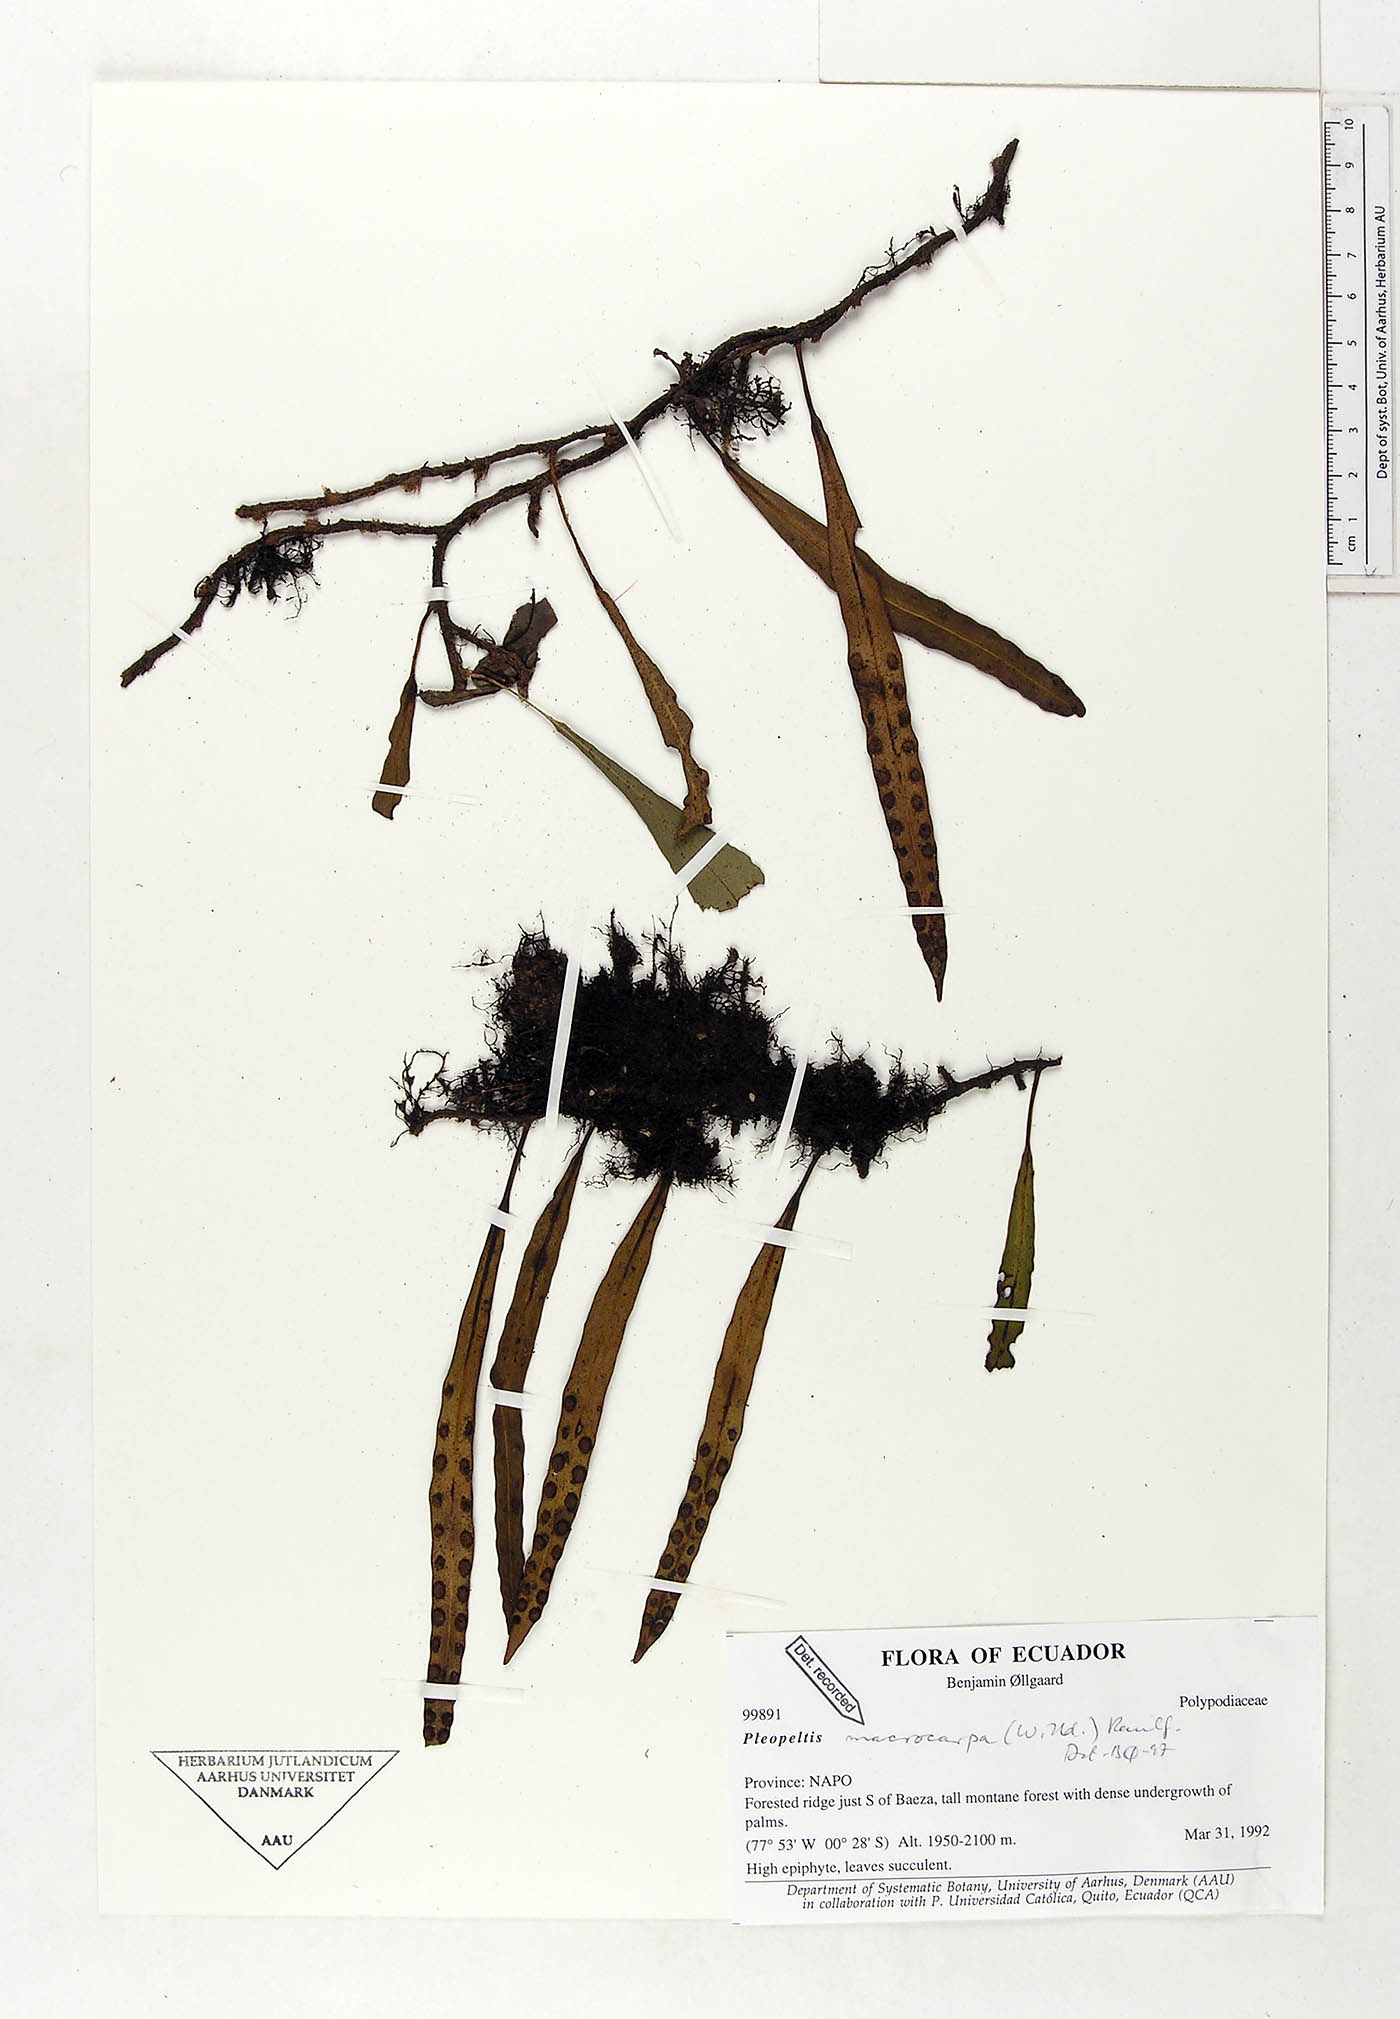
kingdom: Plantae
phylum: Tracheophyta
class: Polypodiopsida
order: Polypodiales
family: Polypodiaceae
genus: Pleopeltis
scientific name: Pleopeltis macrocarpa
